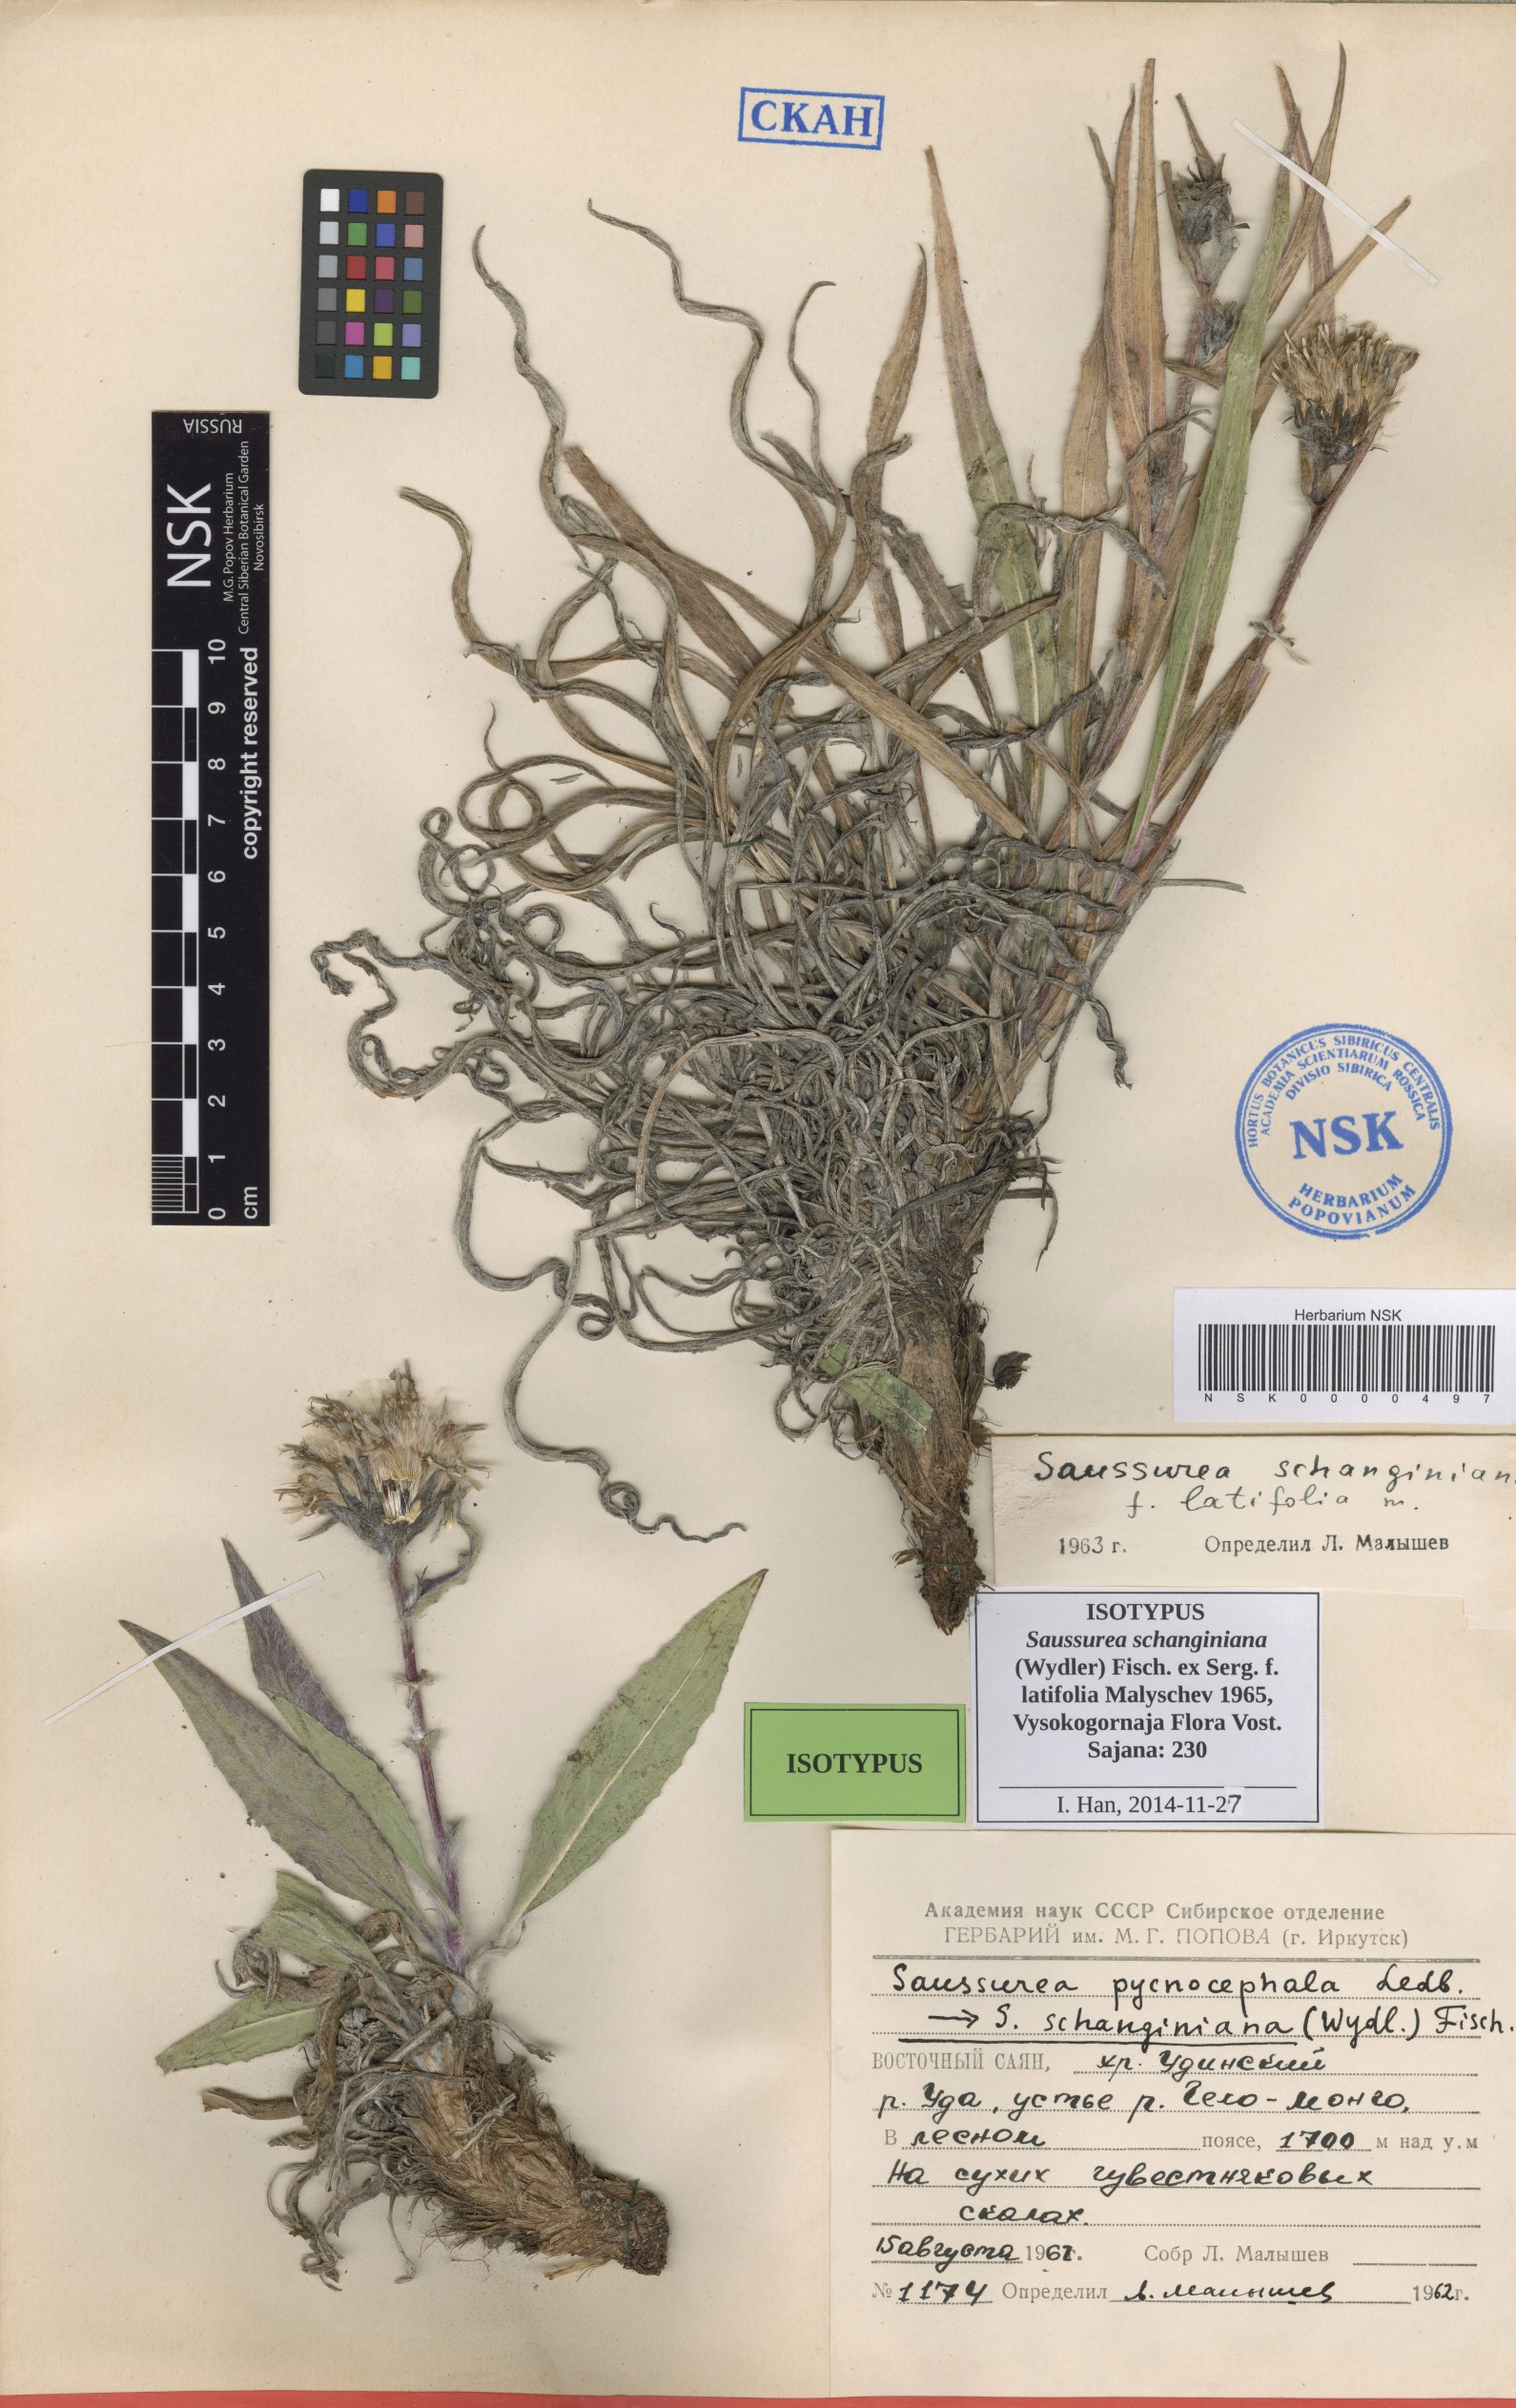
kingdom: Plantae
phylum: Tracheophyta
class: Magnoliopsida
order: Asterales
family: Asteraceae
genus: Saussurea
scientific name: Saussurea schanginiana
